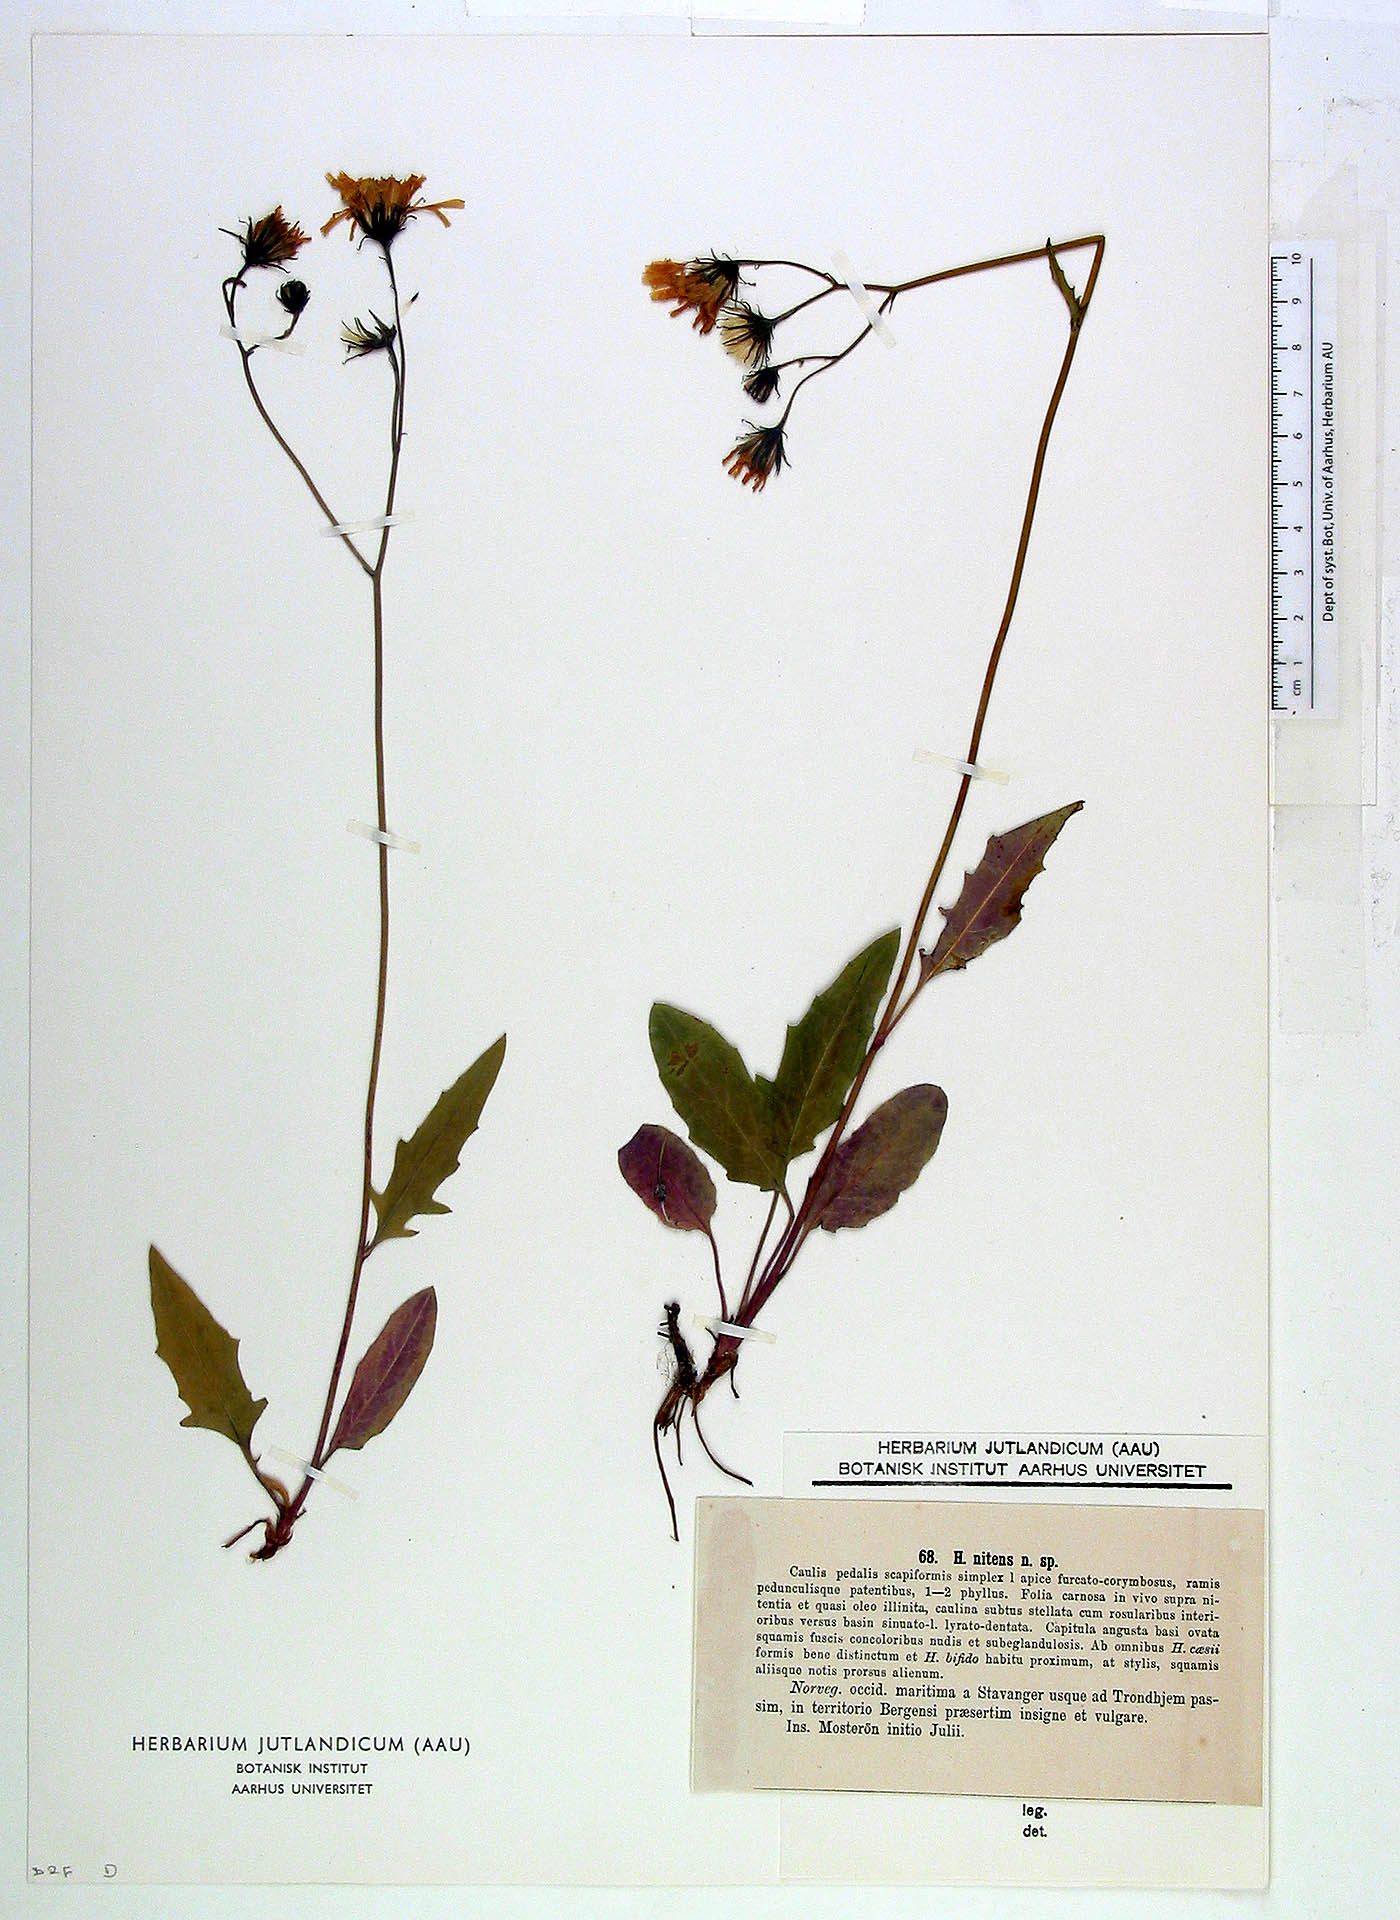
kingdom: Plantae
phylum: Tracheophyta
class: Magnoliopsida
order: Asterales
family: Asteraceae
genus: Hieracium
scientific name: Hieracium nitens
